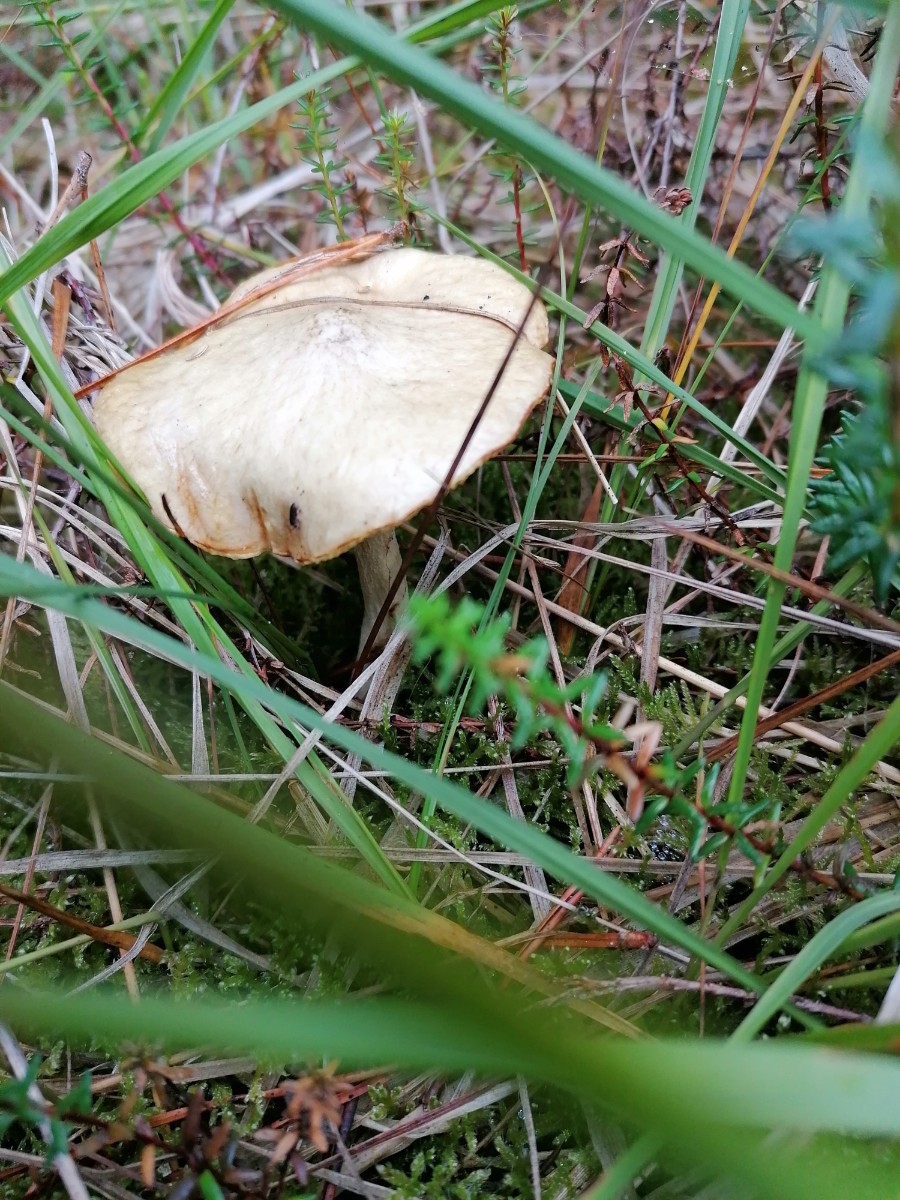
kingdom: Fungi
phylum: Basidiomycota
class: Agaricomycetes
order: Boletales
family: Suillaceae
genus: Suillus
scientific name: Suillus flavidus
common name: mose-slimrørhat
